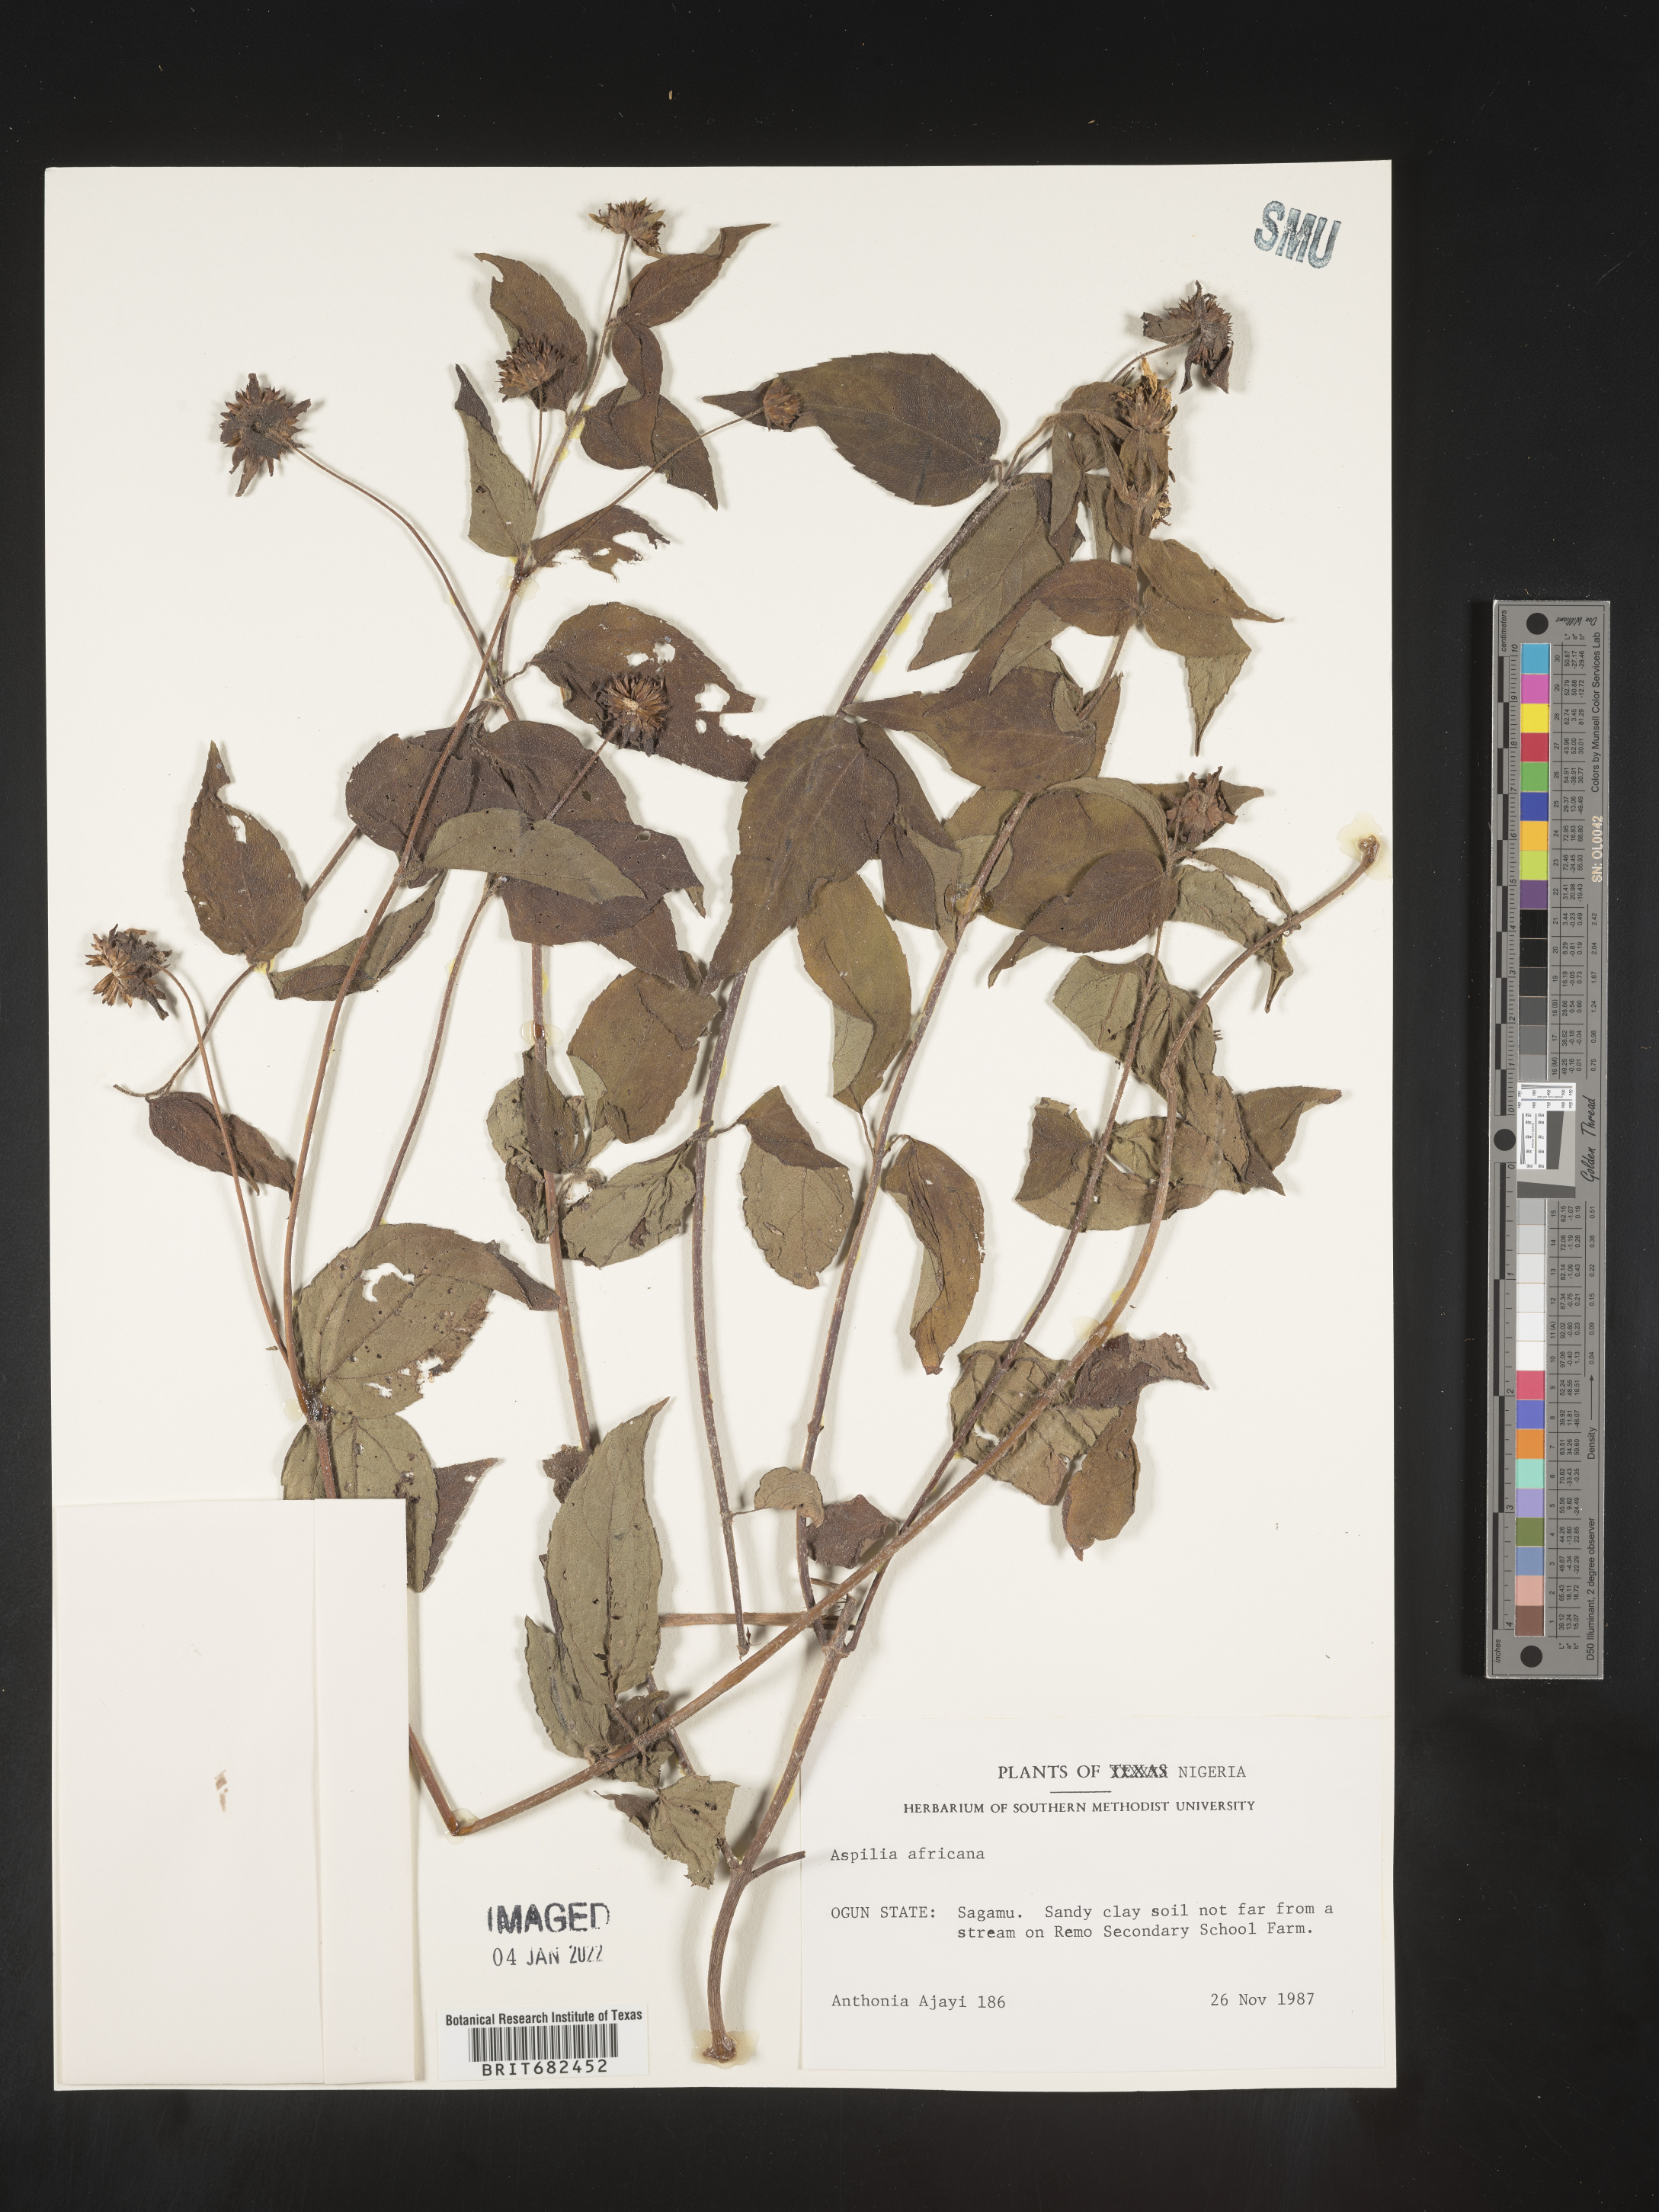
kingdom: Plantae
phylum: Tracheophyta
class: Magnoliopsida
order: Asterales
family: Asteraceae
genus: Aspilia
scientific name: Aspilia
